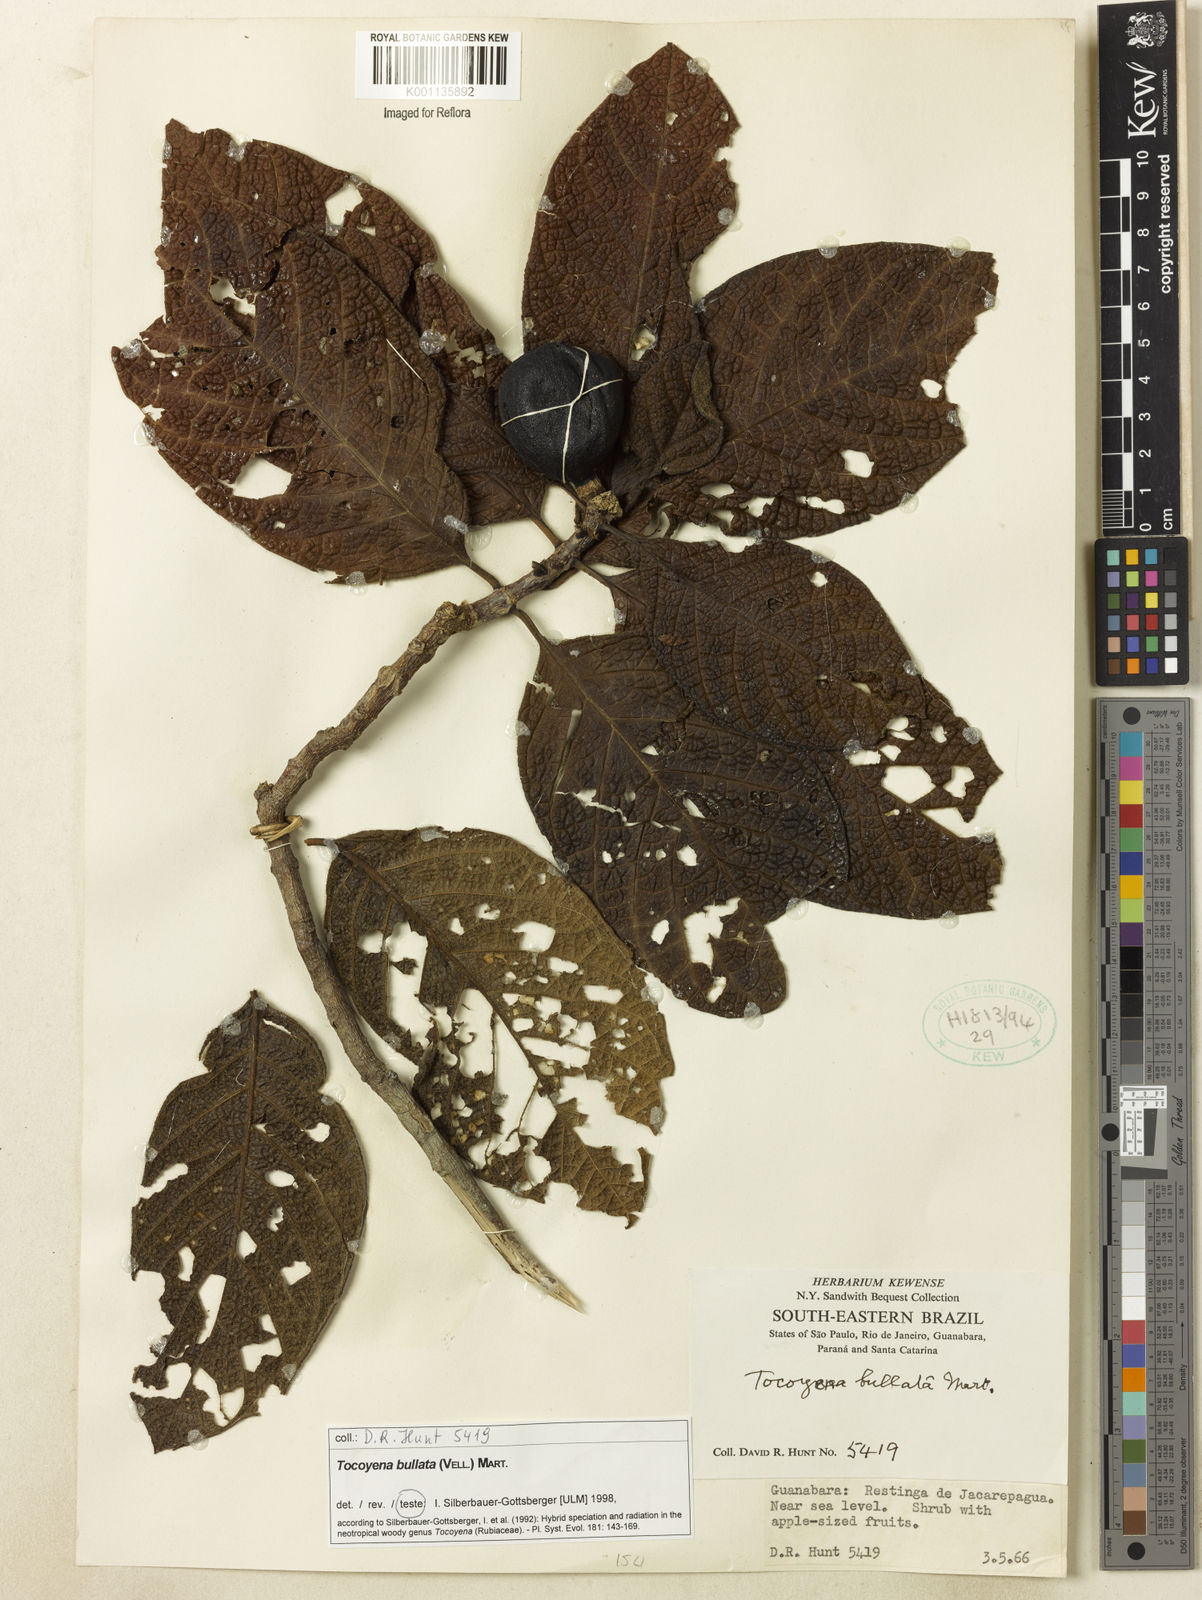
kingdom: Plantae
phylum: Tracheophyta
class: Magnoliopsida
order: Gentianales
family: Rubiaceae
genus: Tocoyena
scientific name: Tocoyena bullata
